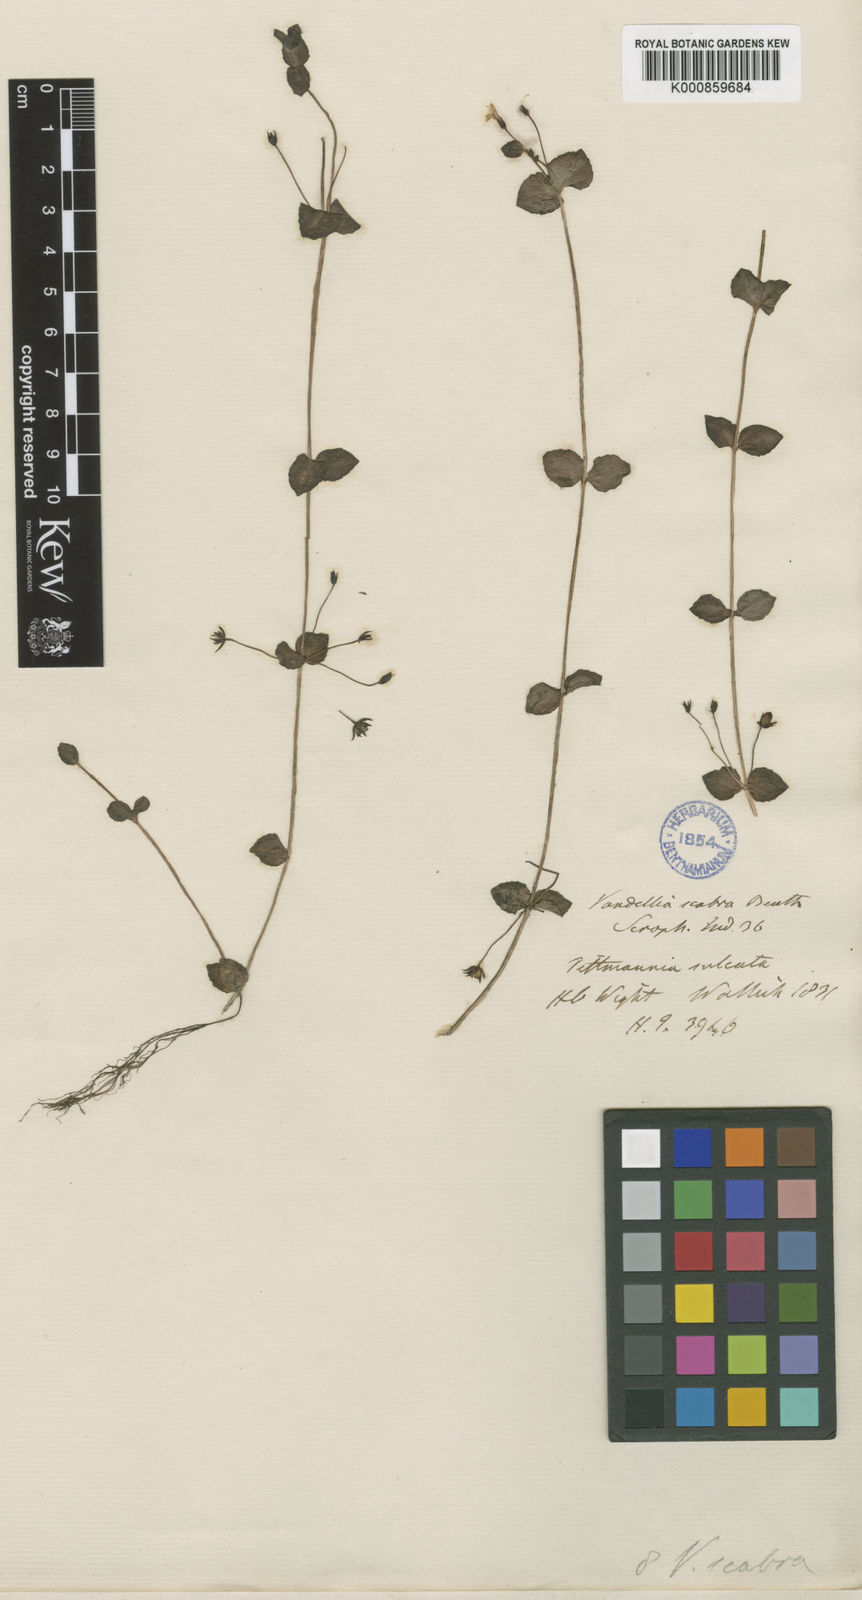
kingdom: Plantae
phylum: Tracheophyta
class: Magnoliopsida
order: Lamiales
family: Linderniaceae
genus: Yamazakia
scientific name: Yamazakia pusilla
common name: Tiny slitwort
